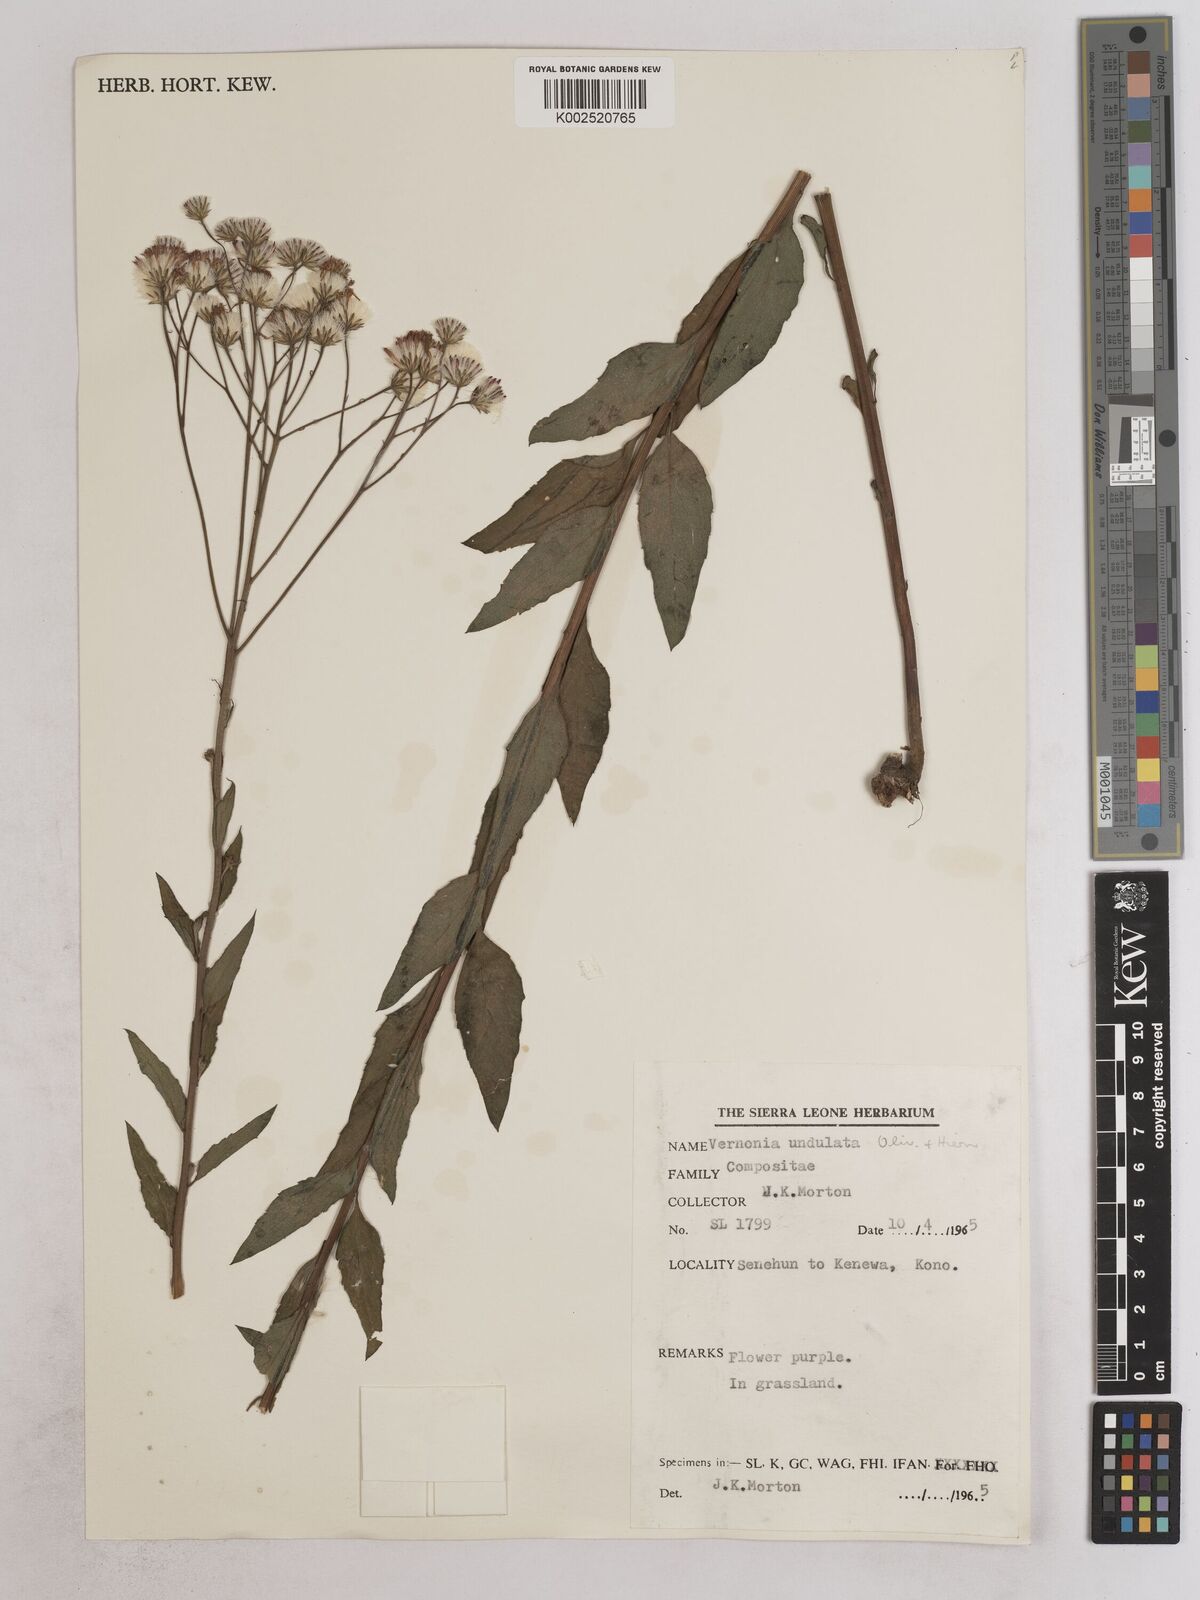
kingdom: Plantae
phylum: Tracheophyta
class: Magnoliopsida
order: Asterales
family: Asteraceae
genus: Vernonia
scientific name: Vernonia golungensis
